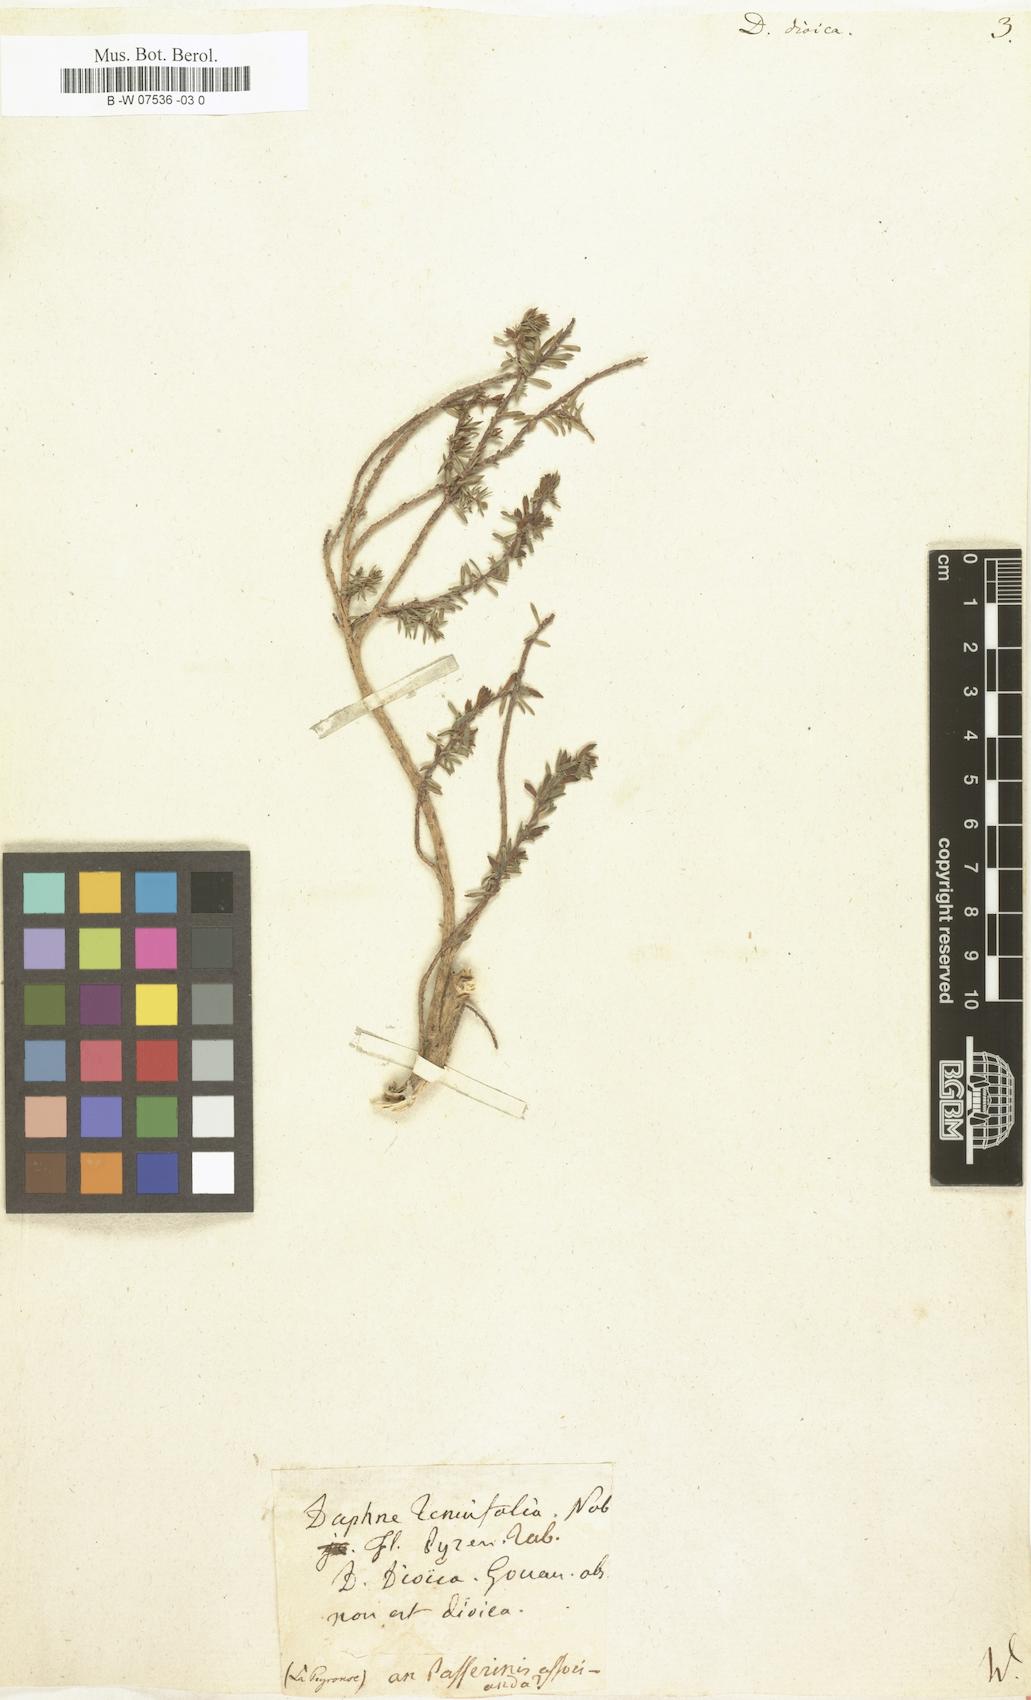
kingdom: Plantae
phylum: Tracheophyta
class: Magnoliopsida
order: Malvales
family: Thymelaeaceae
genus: Thymelaea
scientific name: Thymelaea dioica
